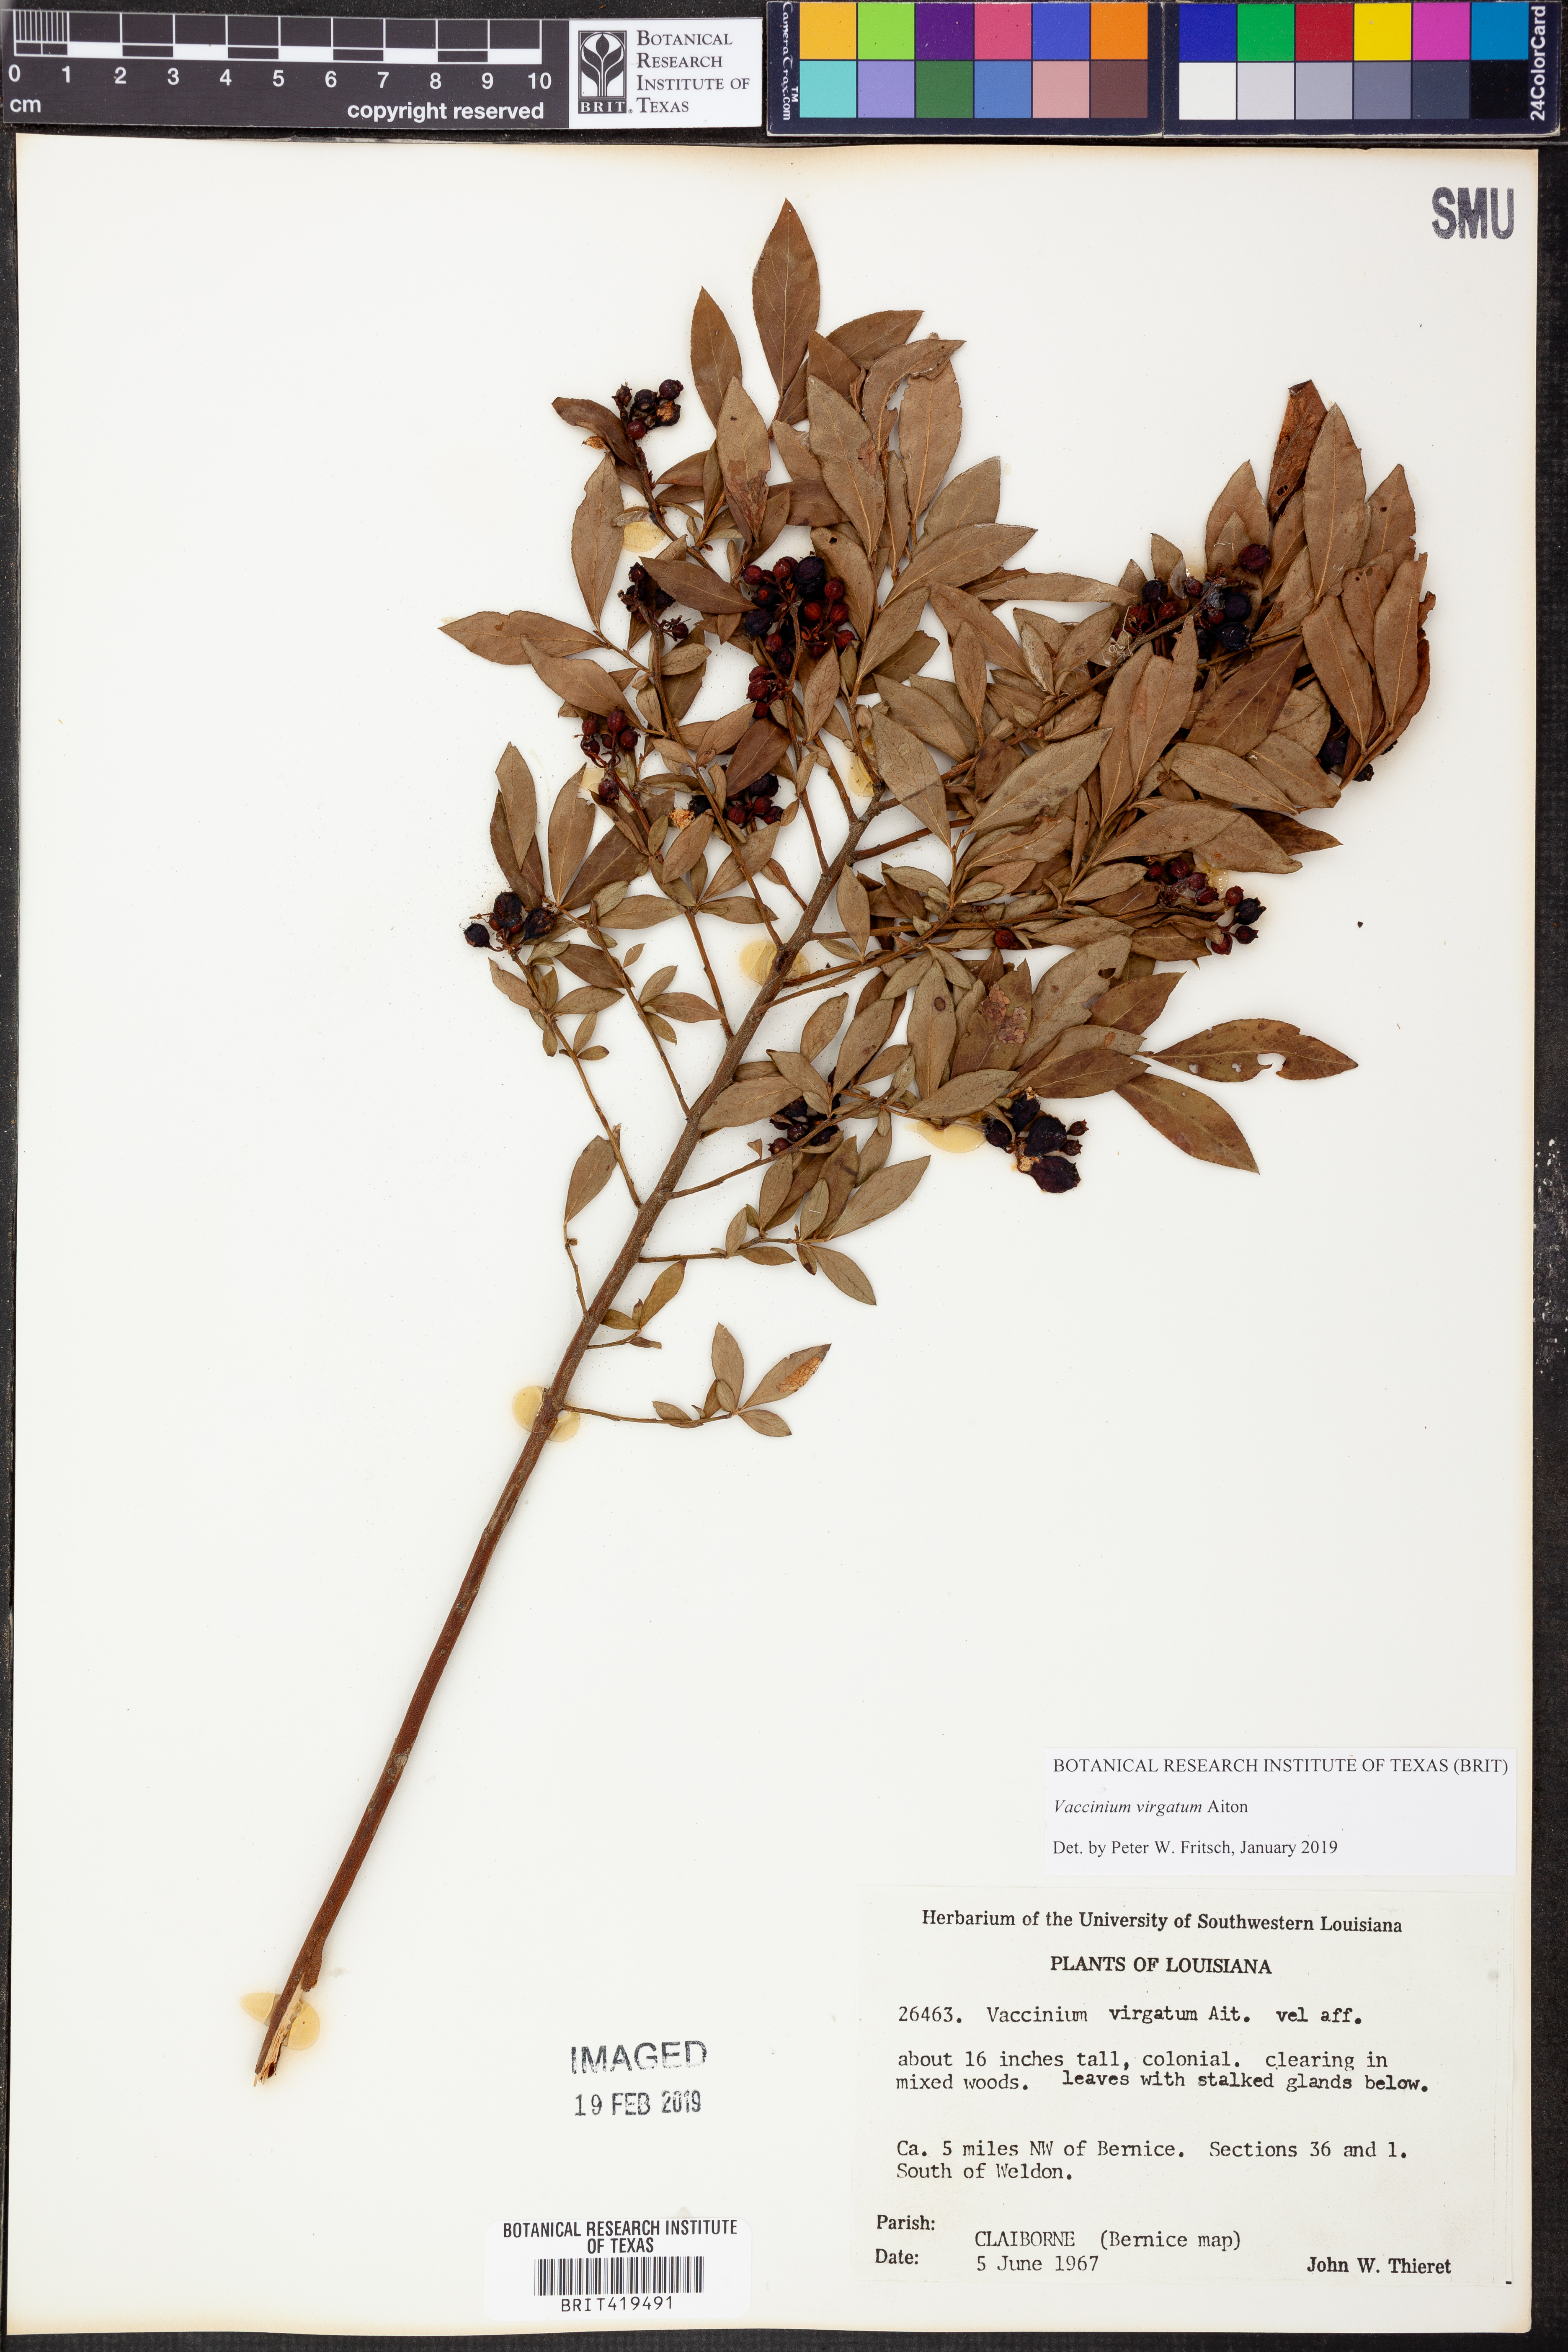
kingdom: Plantae
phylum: Tracheophyta
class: Magnoliopsida
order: Ericales
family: Ericaceae
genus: Vaccinium
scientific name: Vaccinium corymbosum
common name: Blueberry
